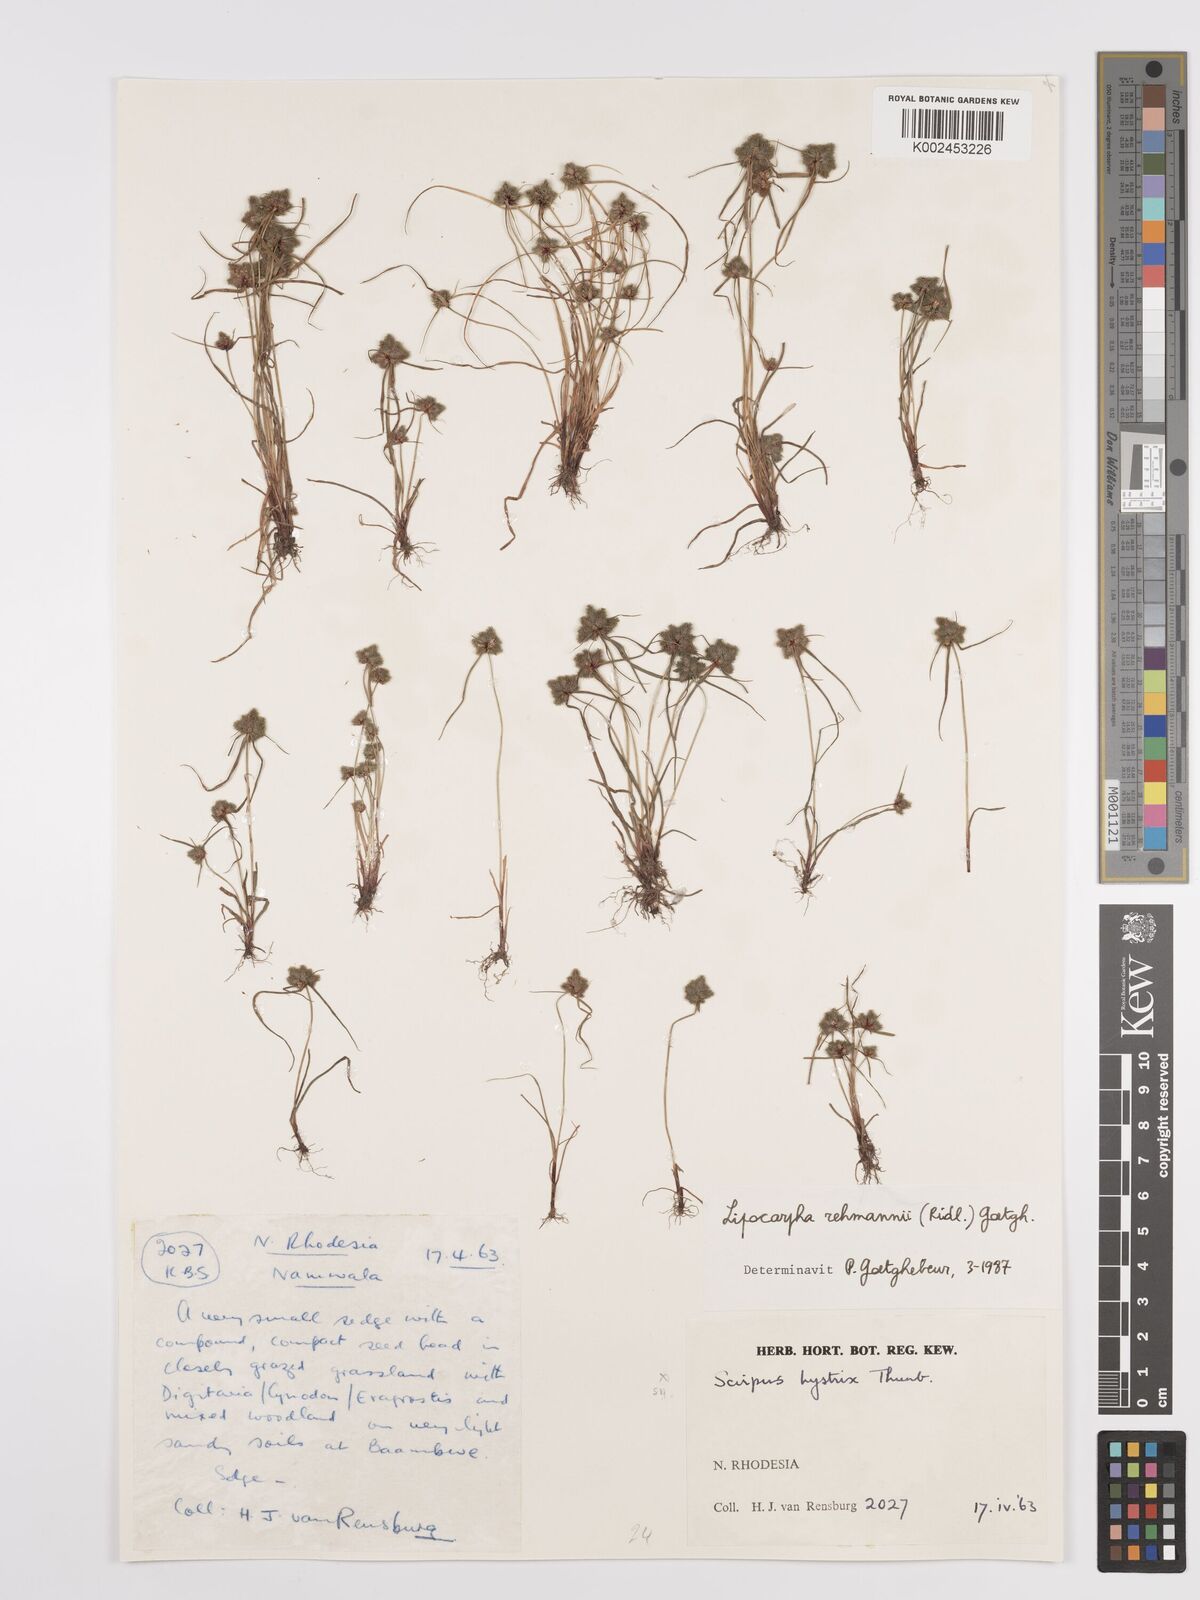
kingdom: Plantae
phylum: Tracheophyta
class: Liliopsida
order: Poales
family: Cyperaceae
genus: Cyperus
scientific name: Cyperus sanguinolentus
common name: Purpleglume flatsedge
